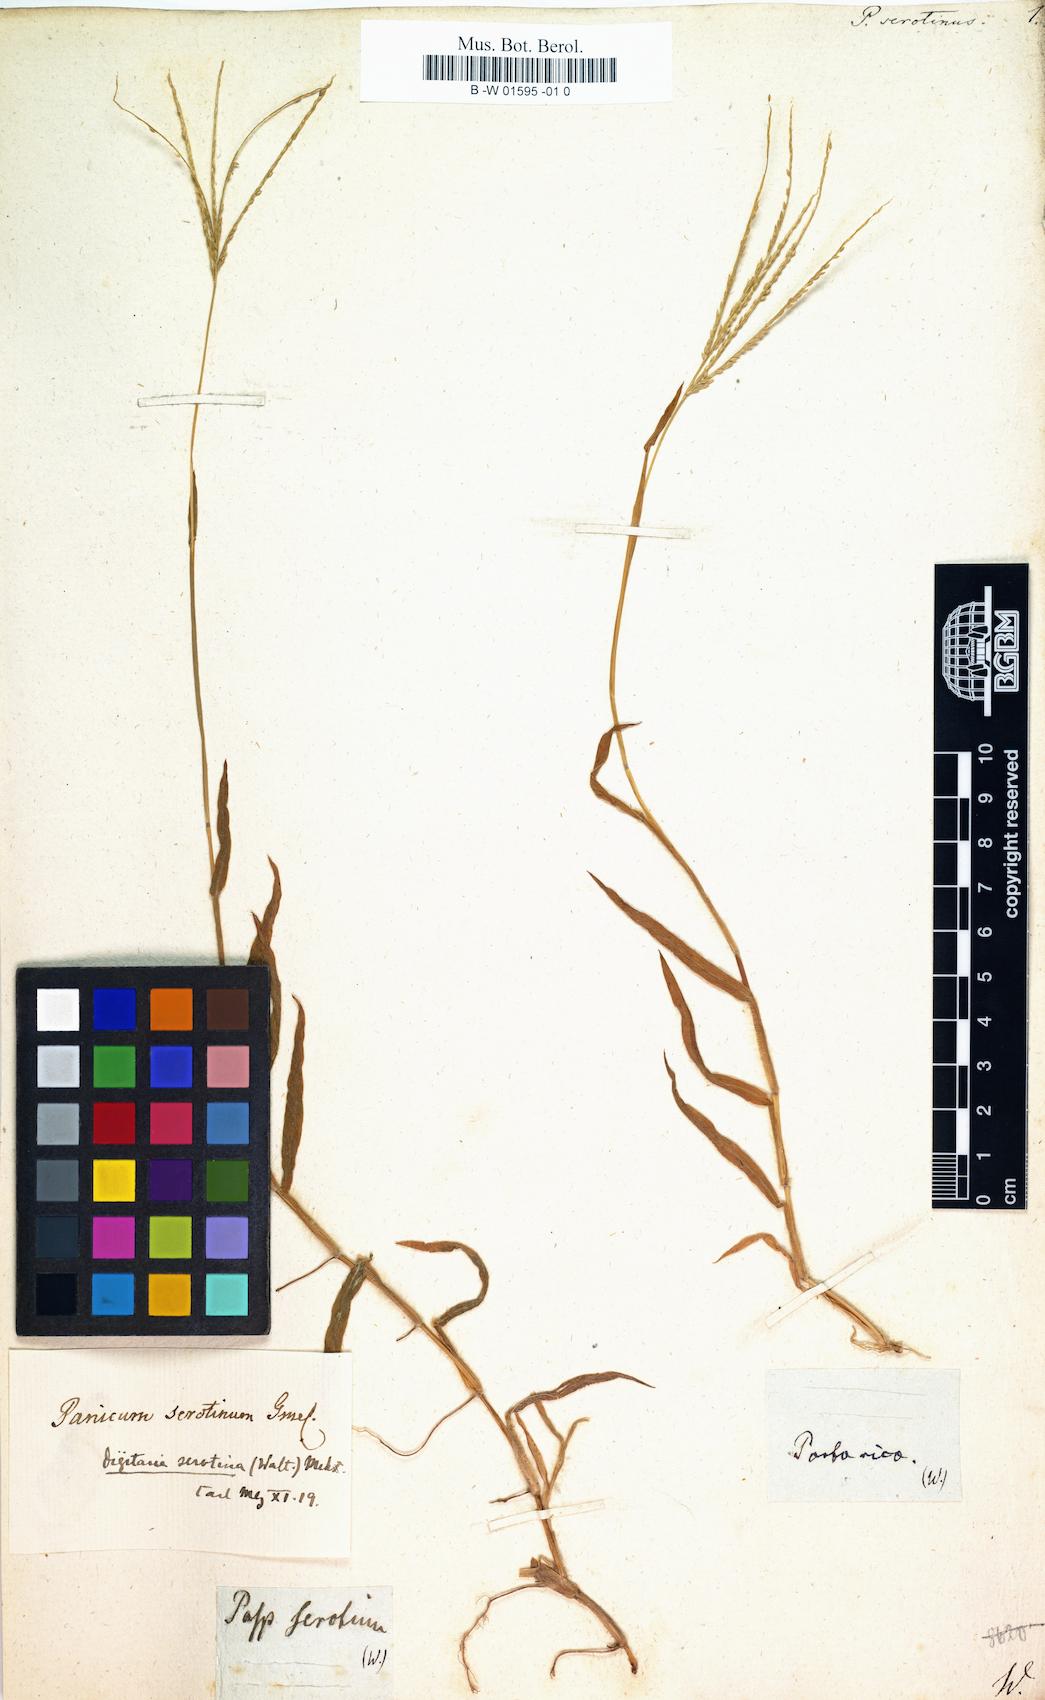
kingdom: Plantae
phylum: Tracheophyta
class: Liliopsida
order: Poales
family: Poaceae
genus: Paspalus
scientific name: Paspalus
